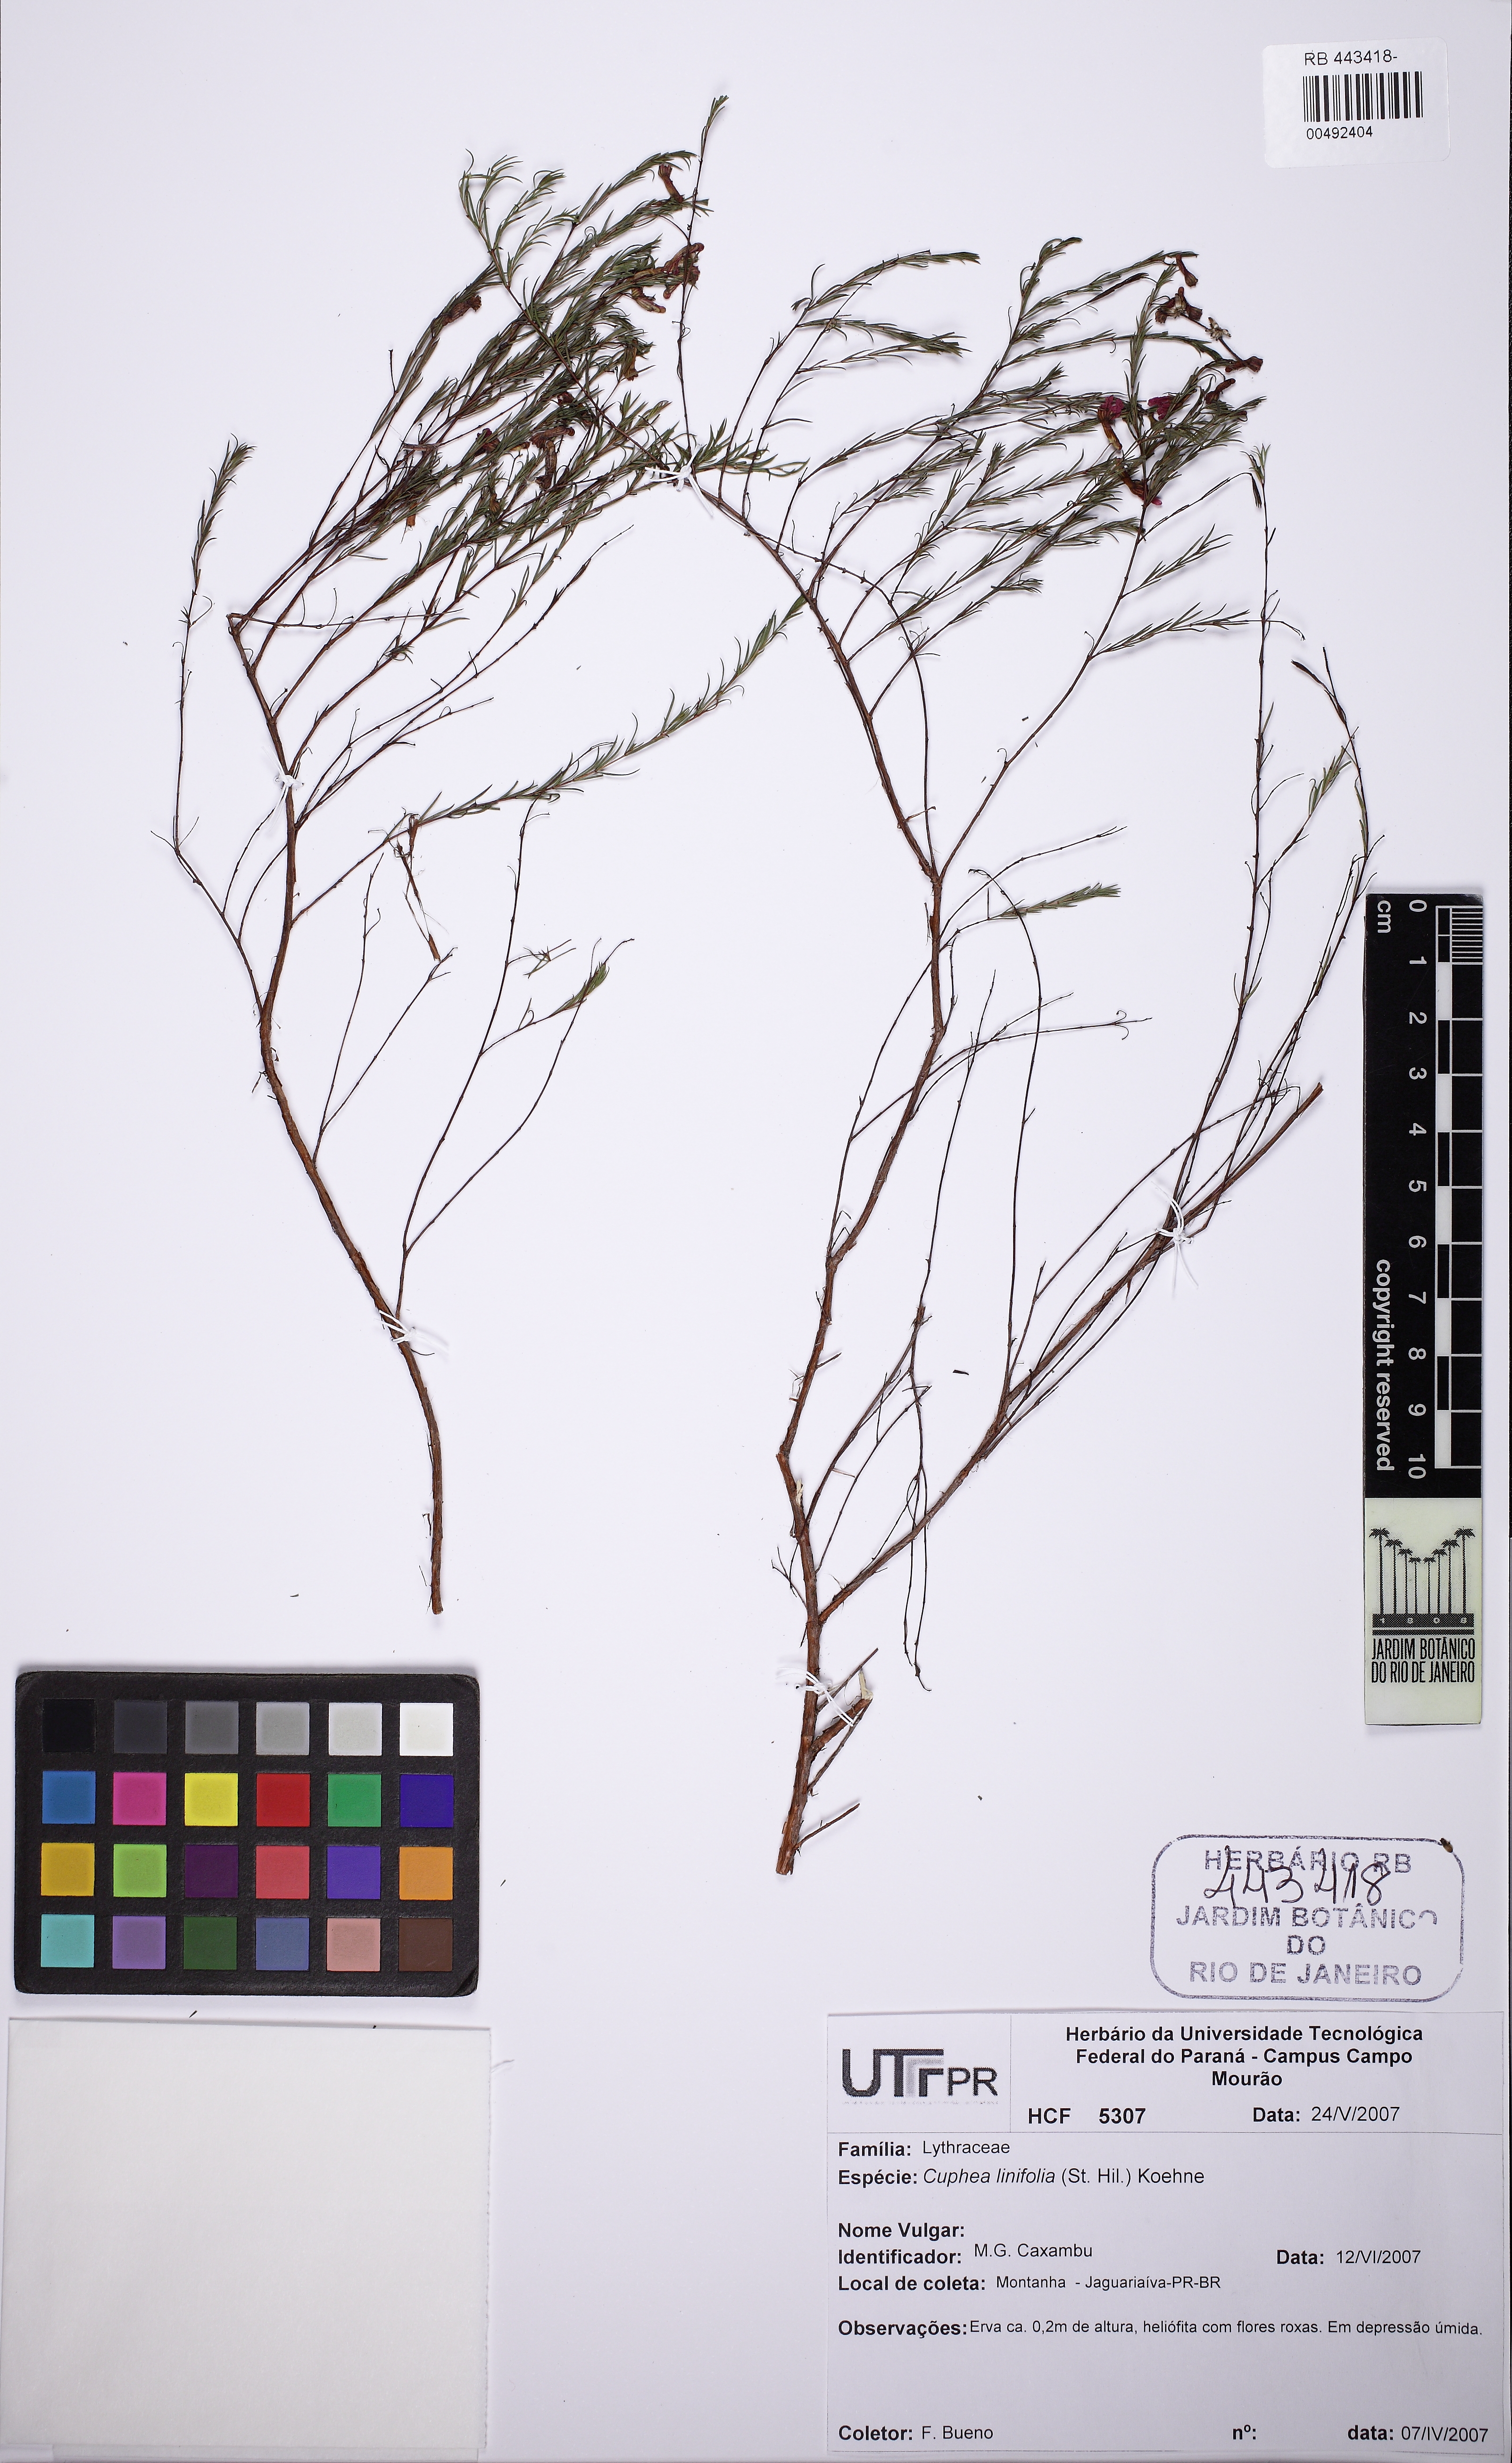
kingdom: Plantae
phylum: Tracheophyta
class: Magnoliopsida
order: Myrtales
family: Lythraceae
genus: Cuphea
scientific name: Cuphea linifolia
